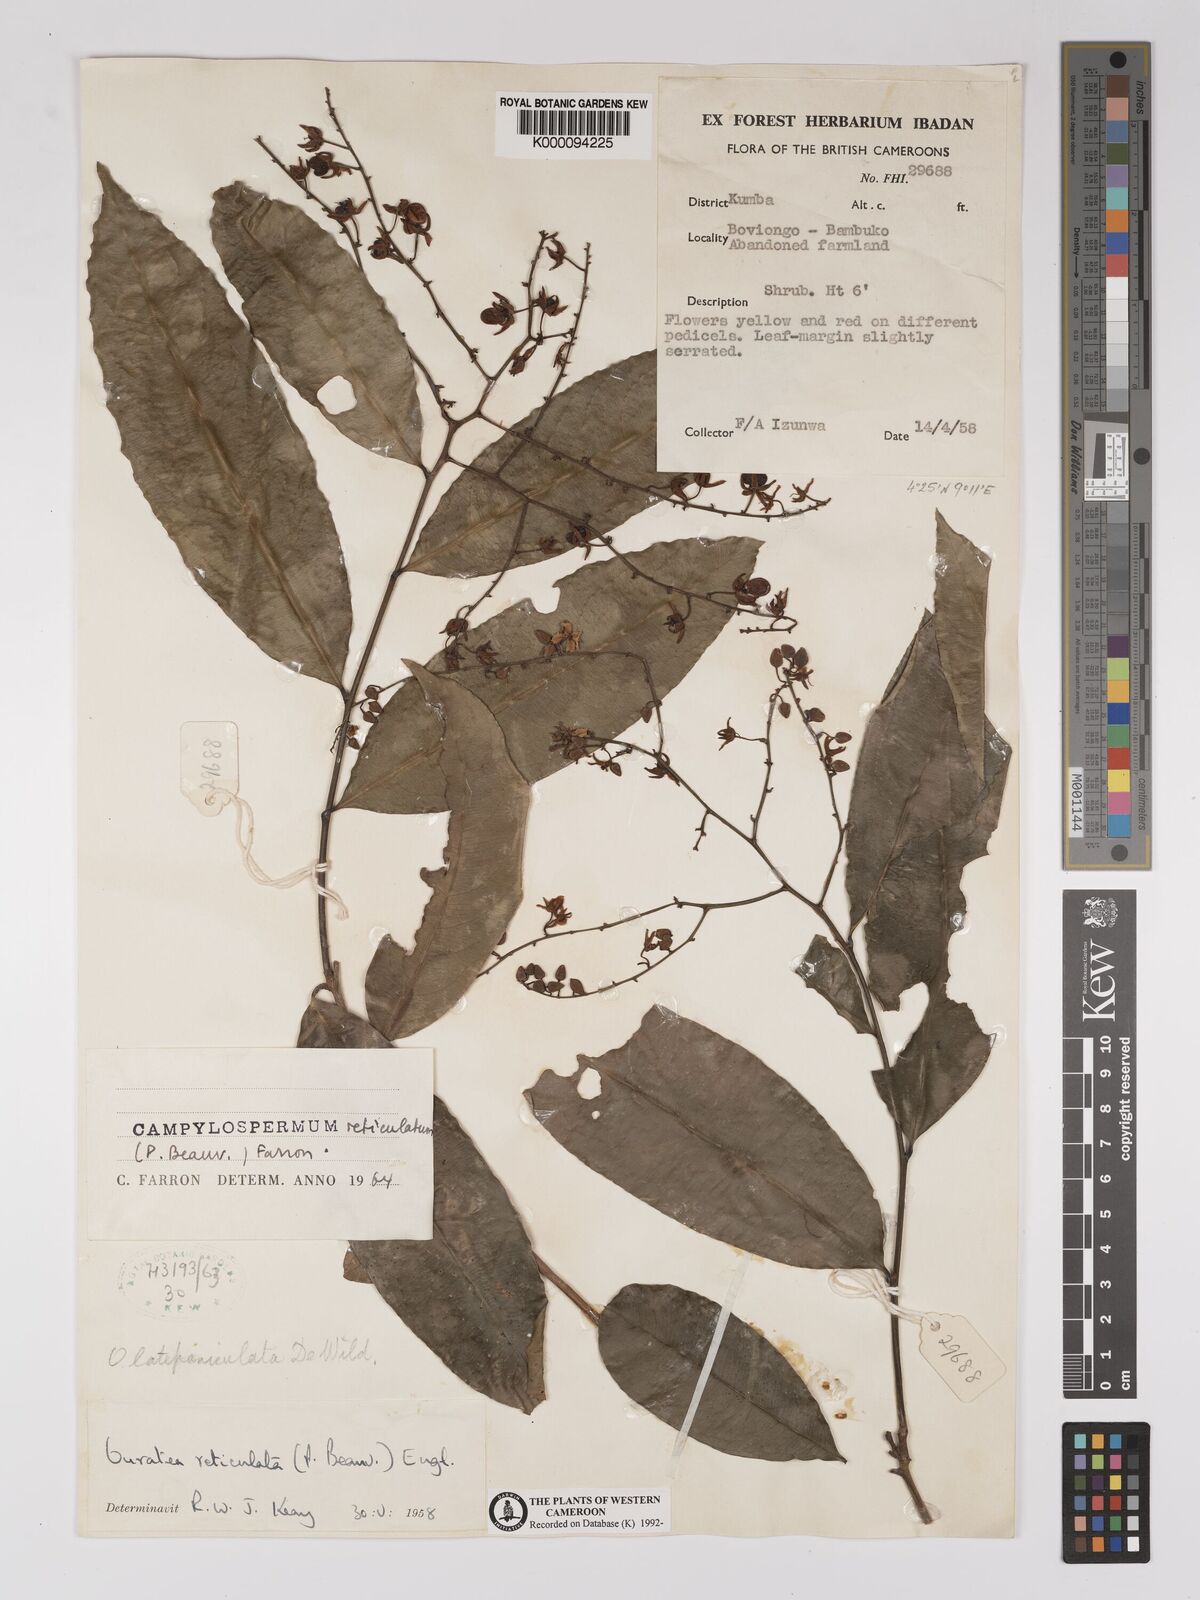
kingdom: Plantae
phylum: Tracheophyta
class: Magnoliopsida
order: Malpighiales
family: Ochnaceae
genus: Campylospermum
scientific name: Campylospermum reticulatum
